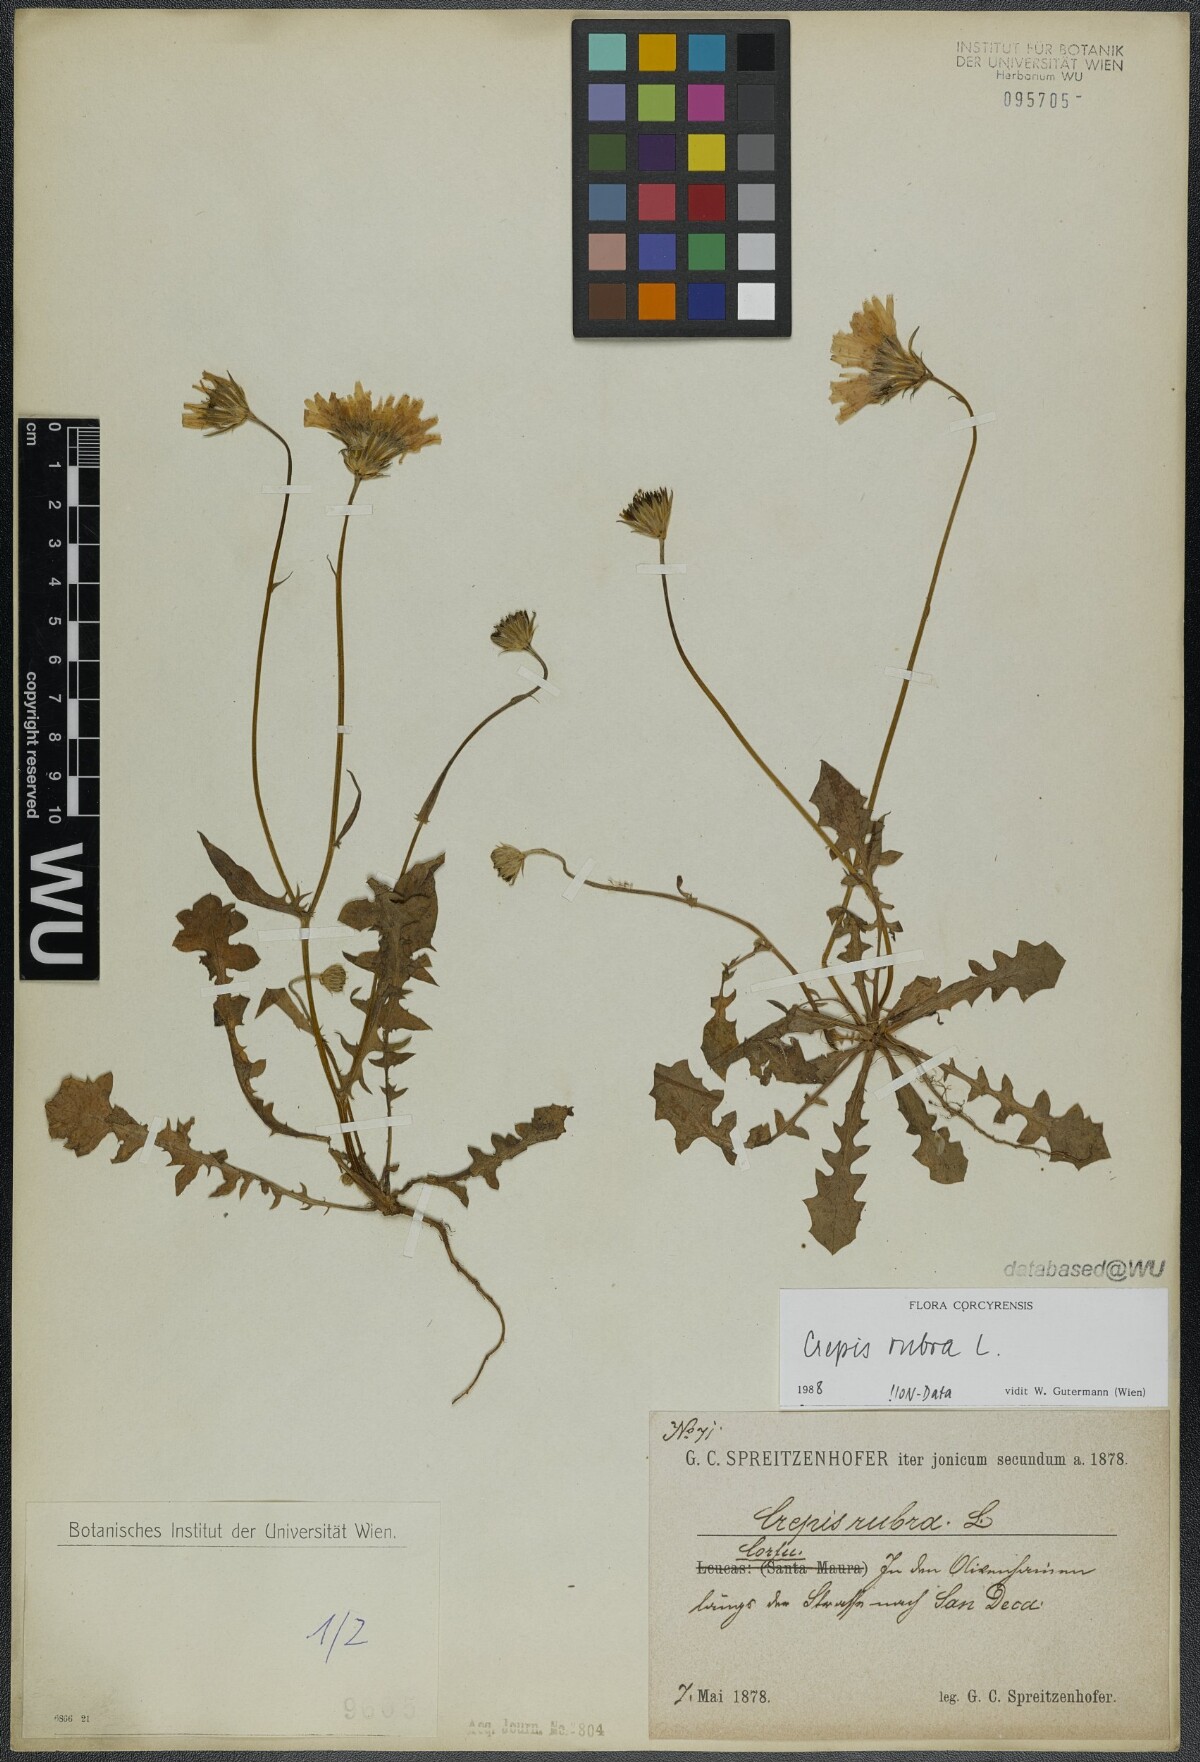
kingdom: Plantae
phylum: Tracheophyta
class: Magnoliopsida
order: Asterales
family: Asteraceae
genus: Crepis
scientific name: Crepis rubra
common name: Pink hawk's-beard
